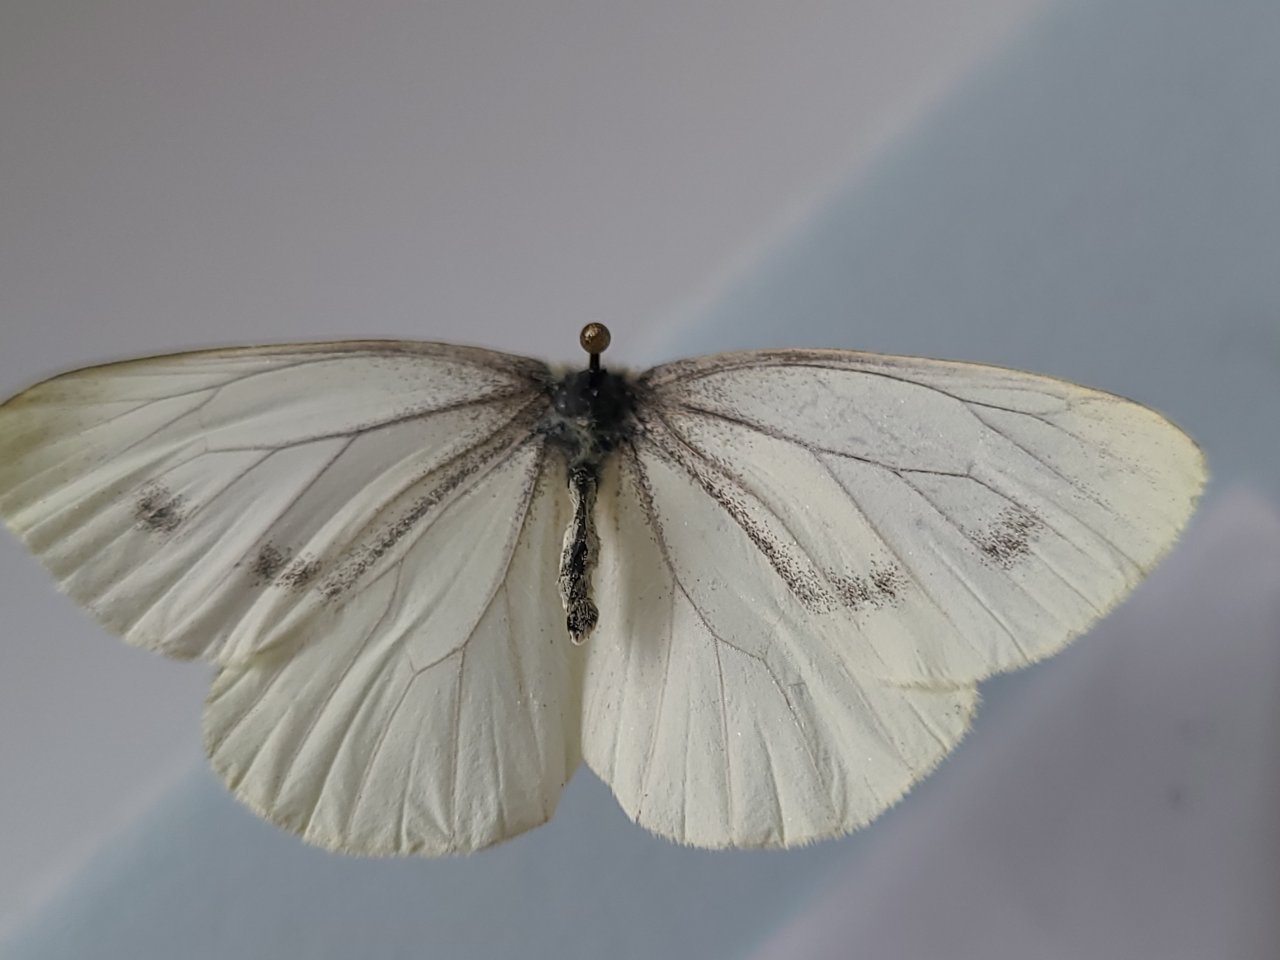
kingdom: Animalia
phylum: Arthropoda
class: Insecta
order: Lepidoptera
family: Pieridae
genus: Pieris
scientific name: Pieris rapae
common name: Cabbage White
